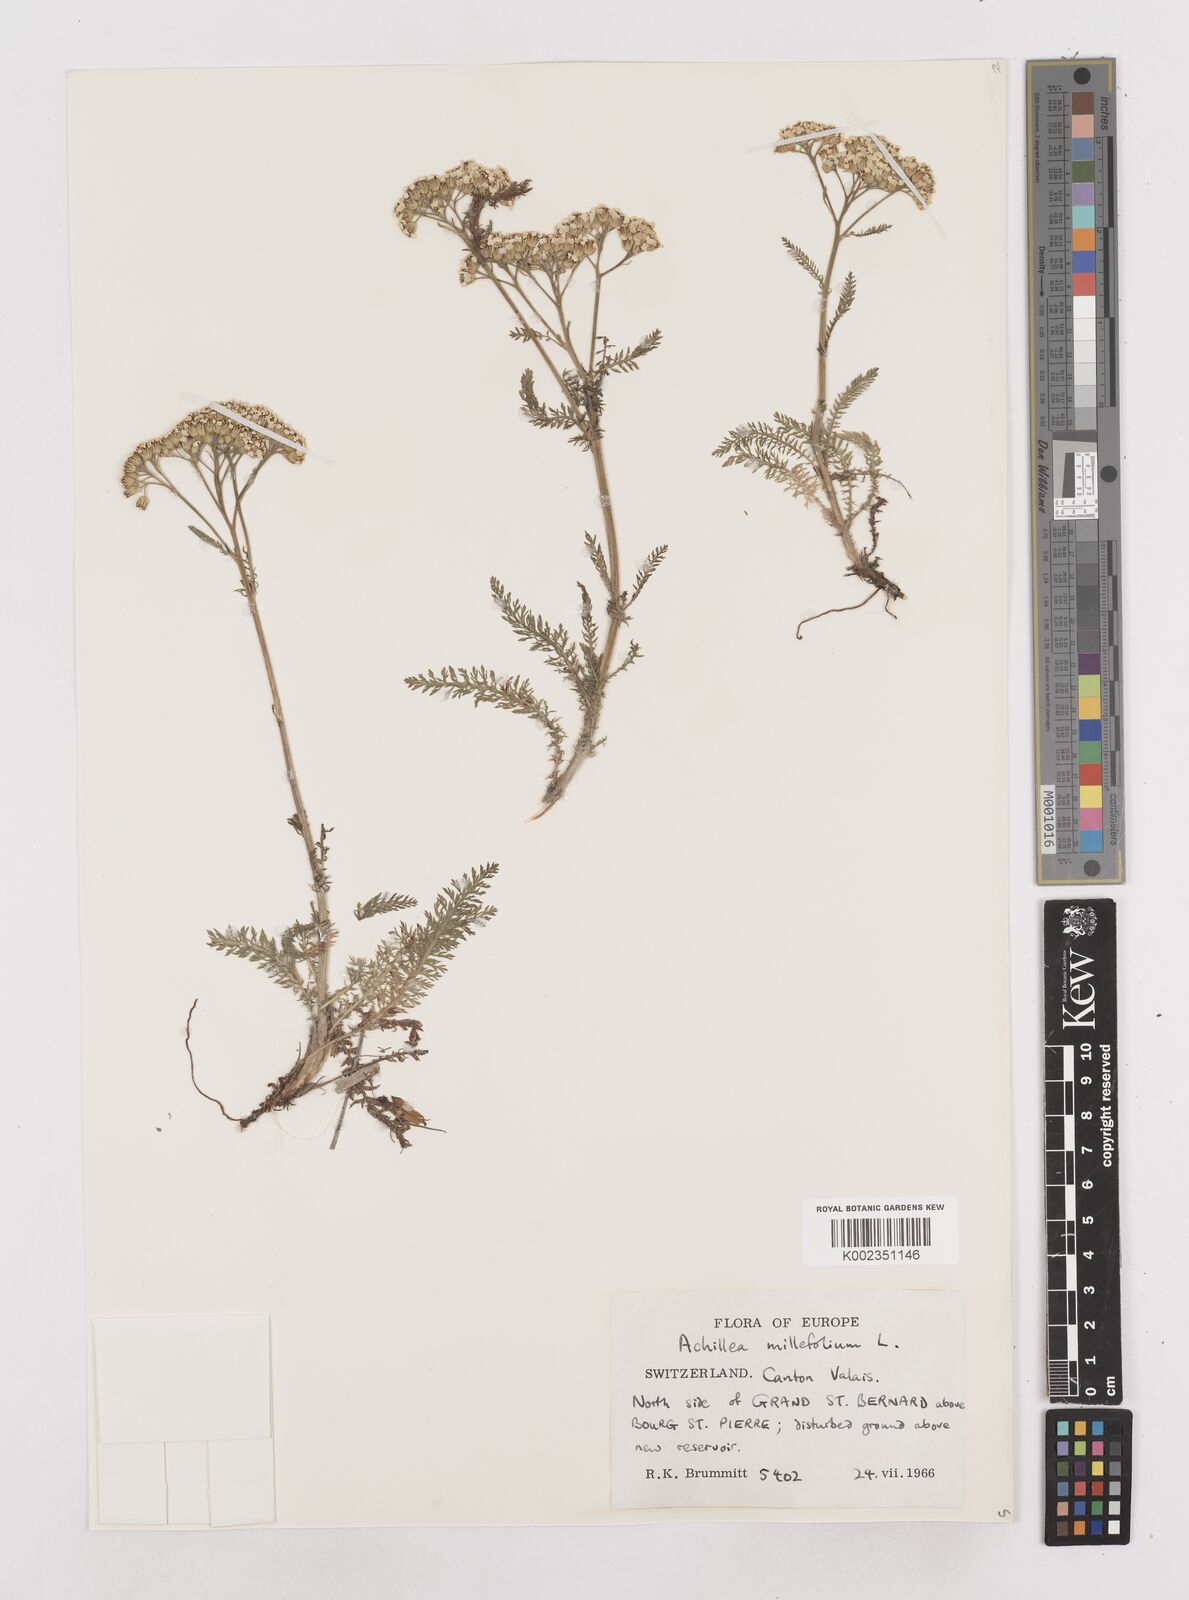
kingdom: Plantae
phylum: Tracheophyta
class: Magnoliopsida
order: Asterales
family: Asteraceae
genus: Achillea
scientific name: Achillea millefolium
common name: Yarrow
